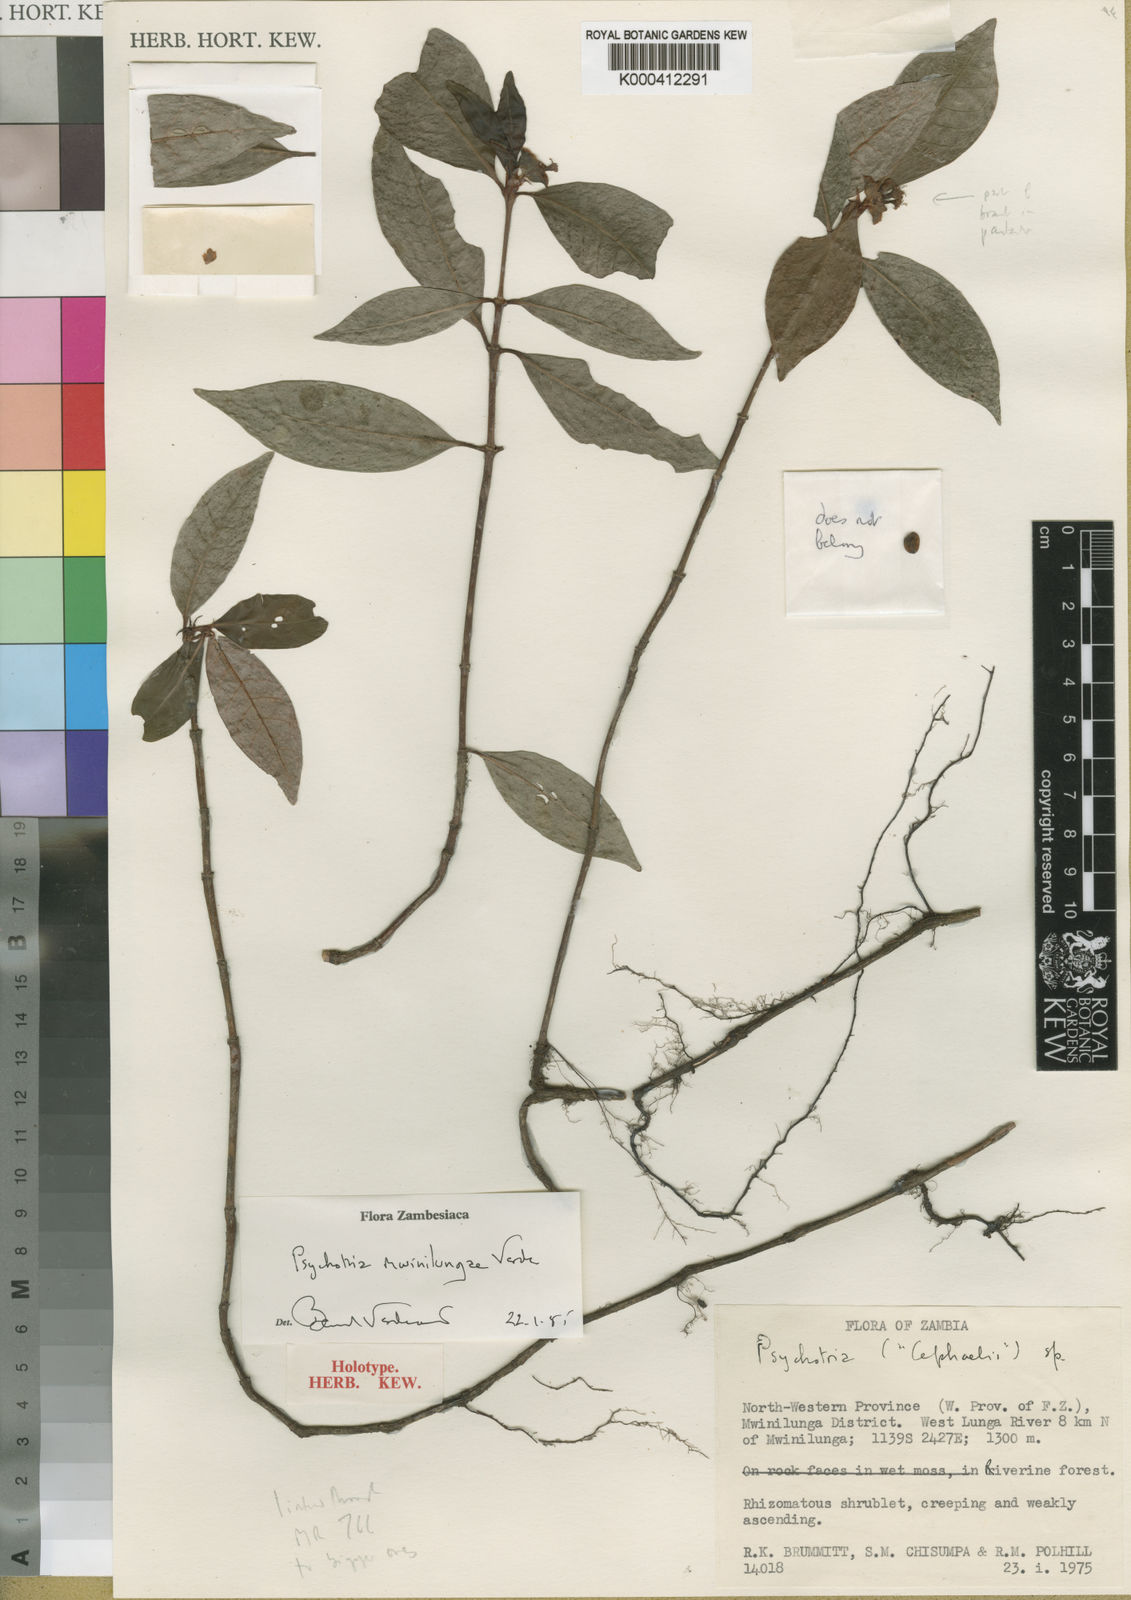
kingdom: Plantae
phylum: Tracheophyta
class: Magnoliopsida
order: Gentianales
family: Rubiaceae
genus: Psychotria
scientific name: Psychotria mwinilungae
